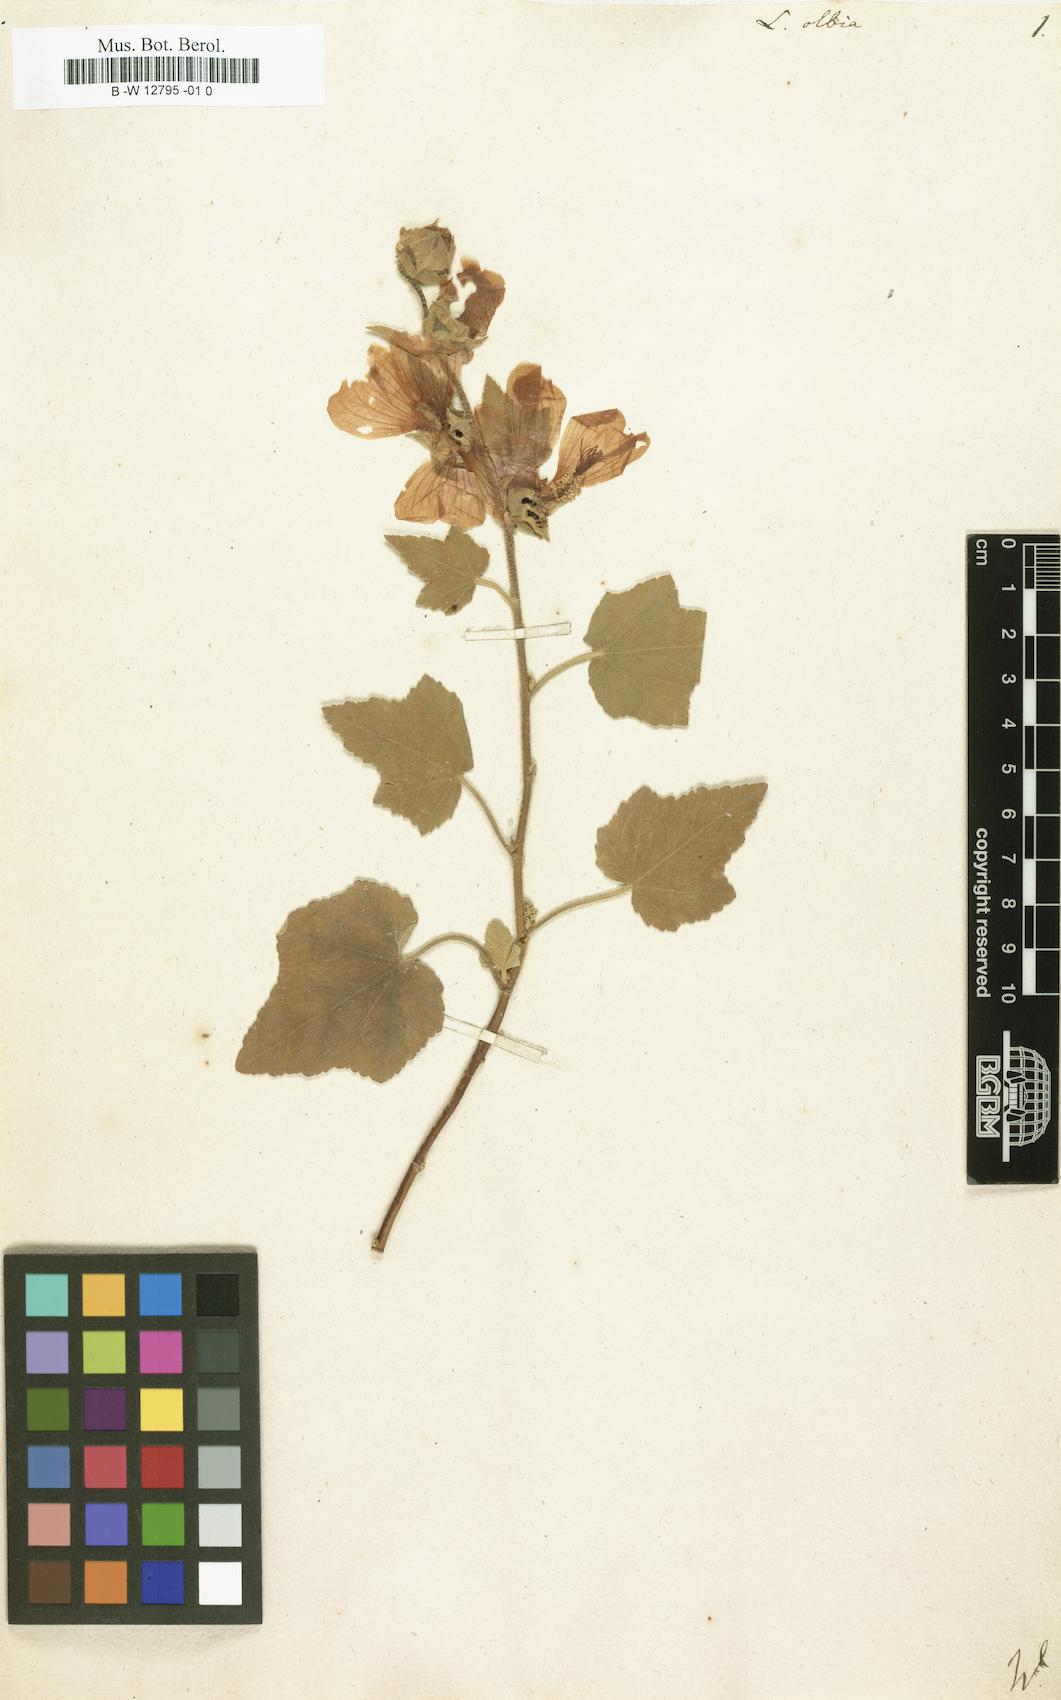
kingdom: Plantae
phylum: Tracheophyta
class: Magnoliopsida
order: Malvales
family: Malvaceae
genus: Malva
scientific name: Malva
